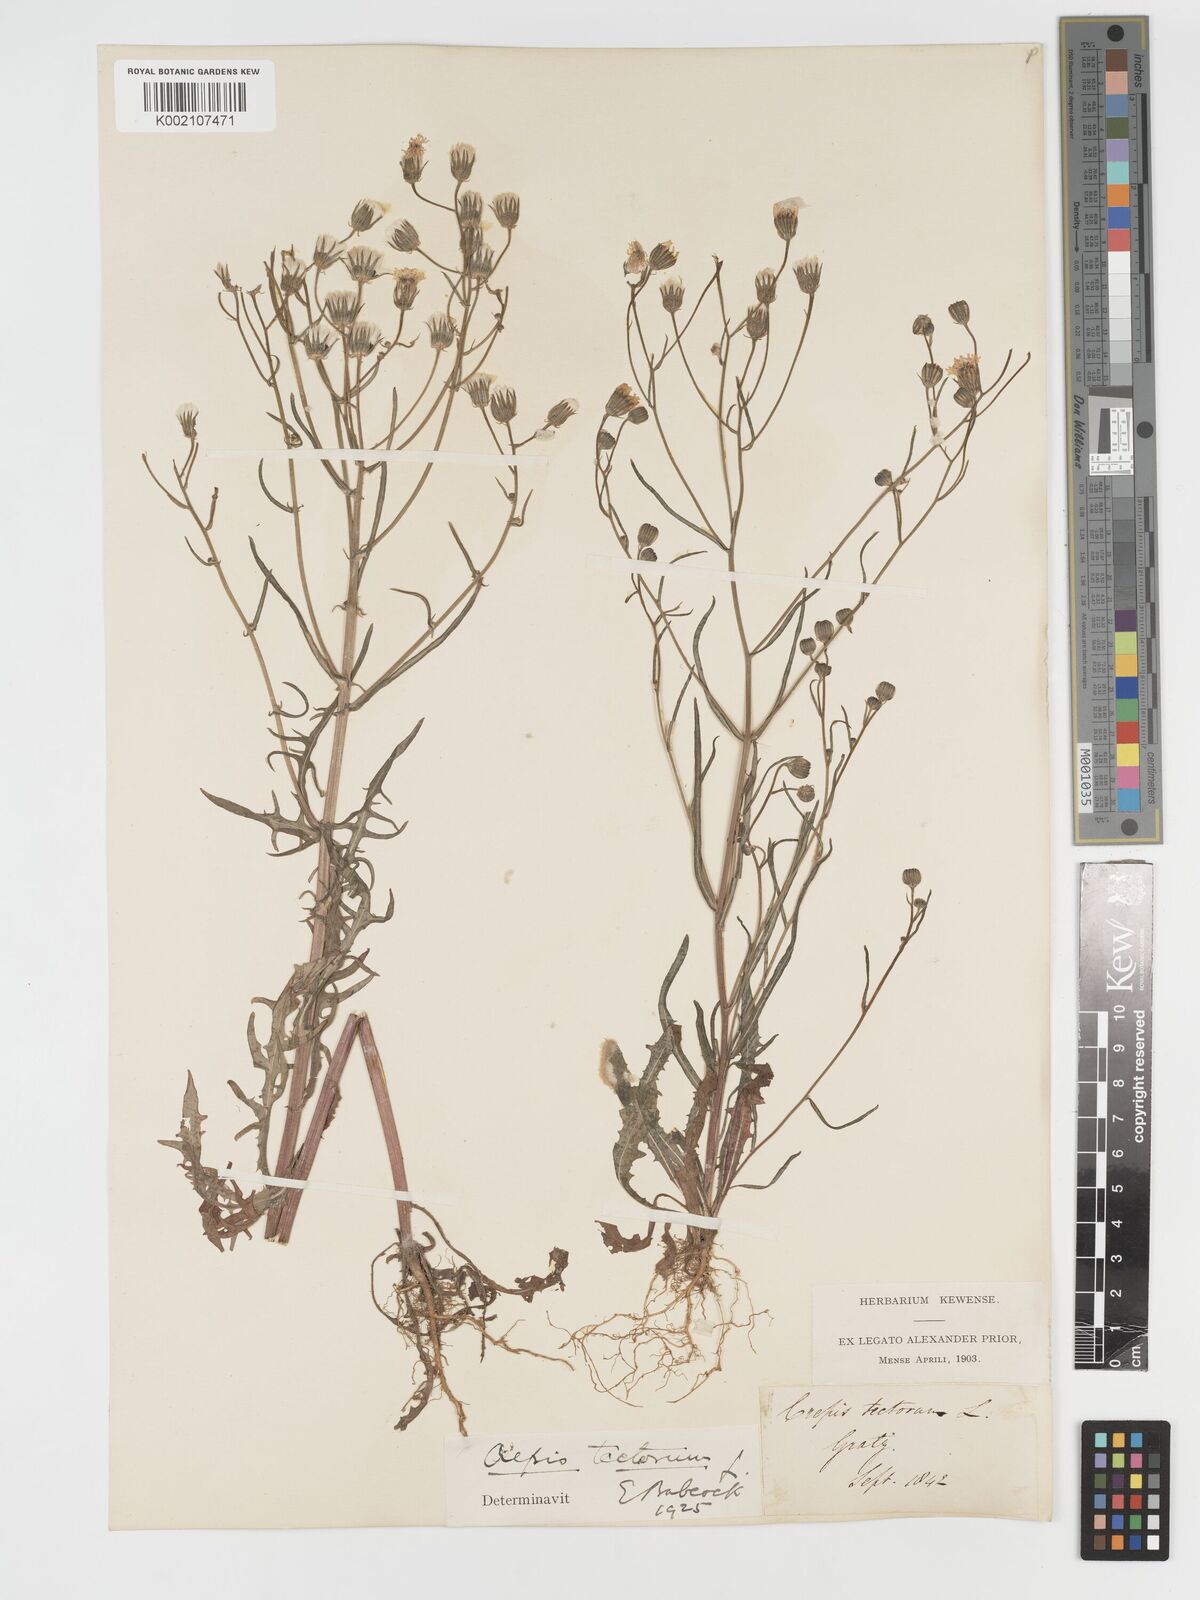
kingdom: Plantae
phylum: Tracheophyta
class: Magnoliopsida
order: Asterales
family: Asteraceae
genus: Crepis
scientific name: Crepis tectorum
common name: Narrow-leaved hawk's-beard
